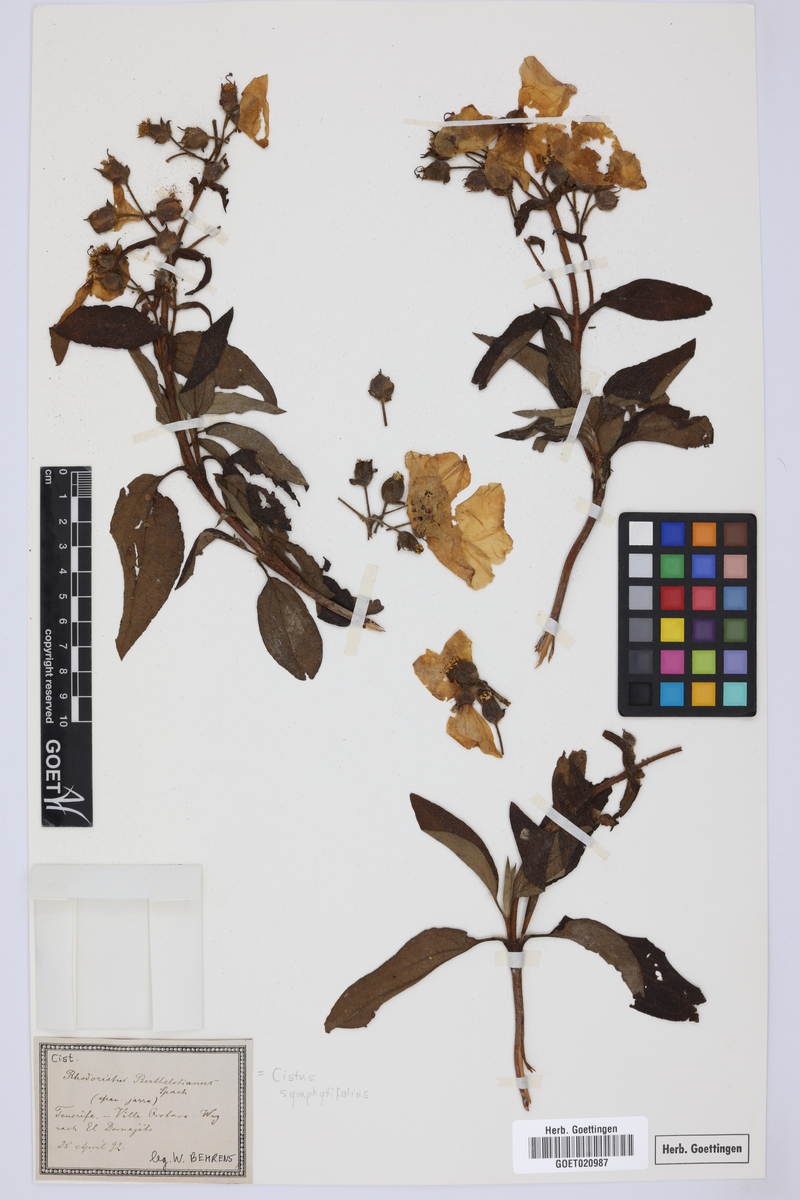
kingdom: Plantae
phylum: Tracheophyta
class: Magnoliopsida
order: Malvales
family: Cistaceae
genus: Cistus
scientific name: Cistus symphytifolius
